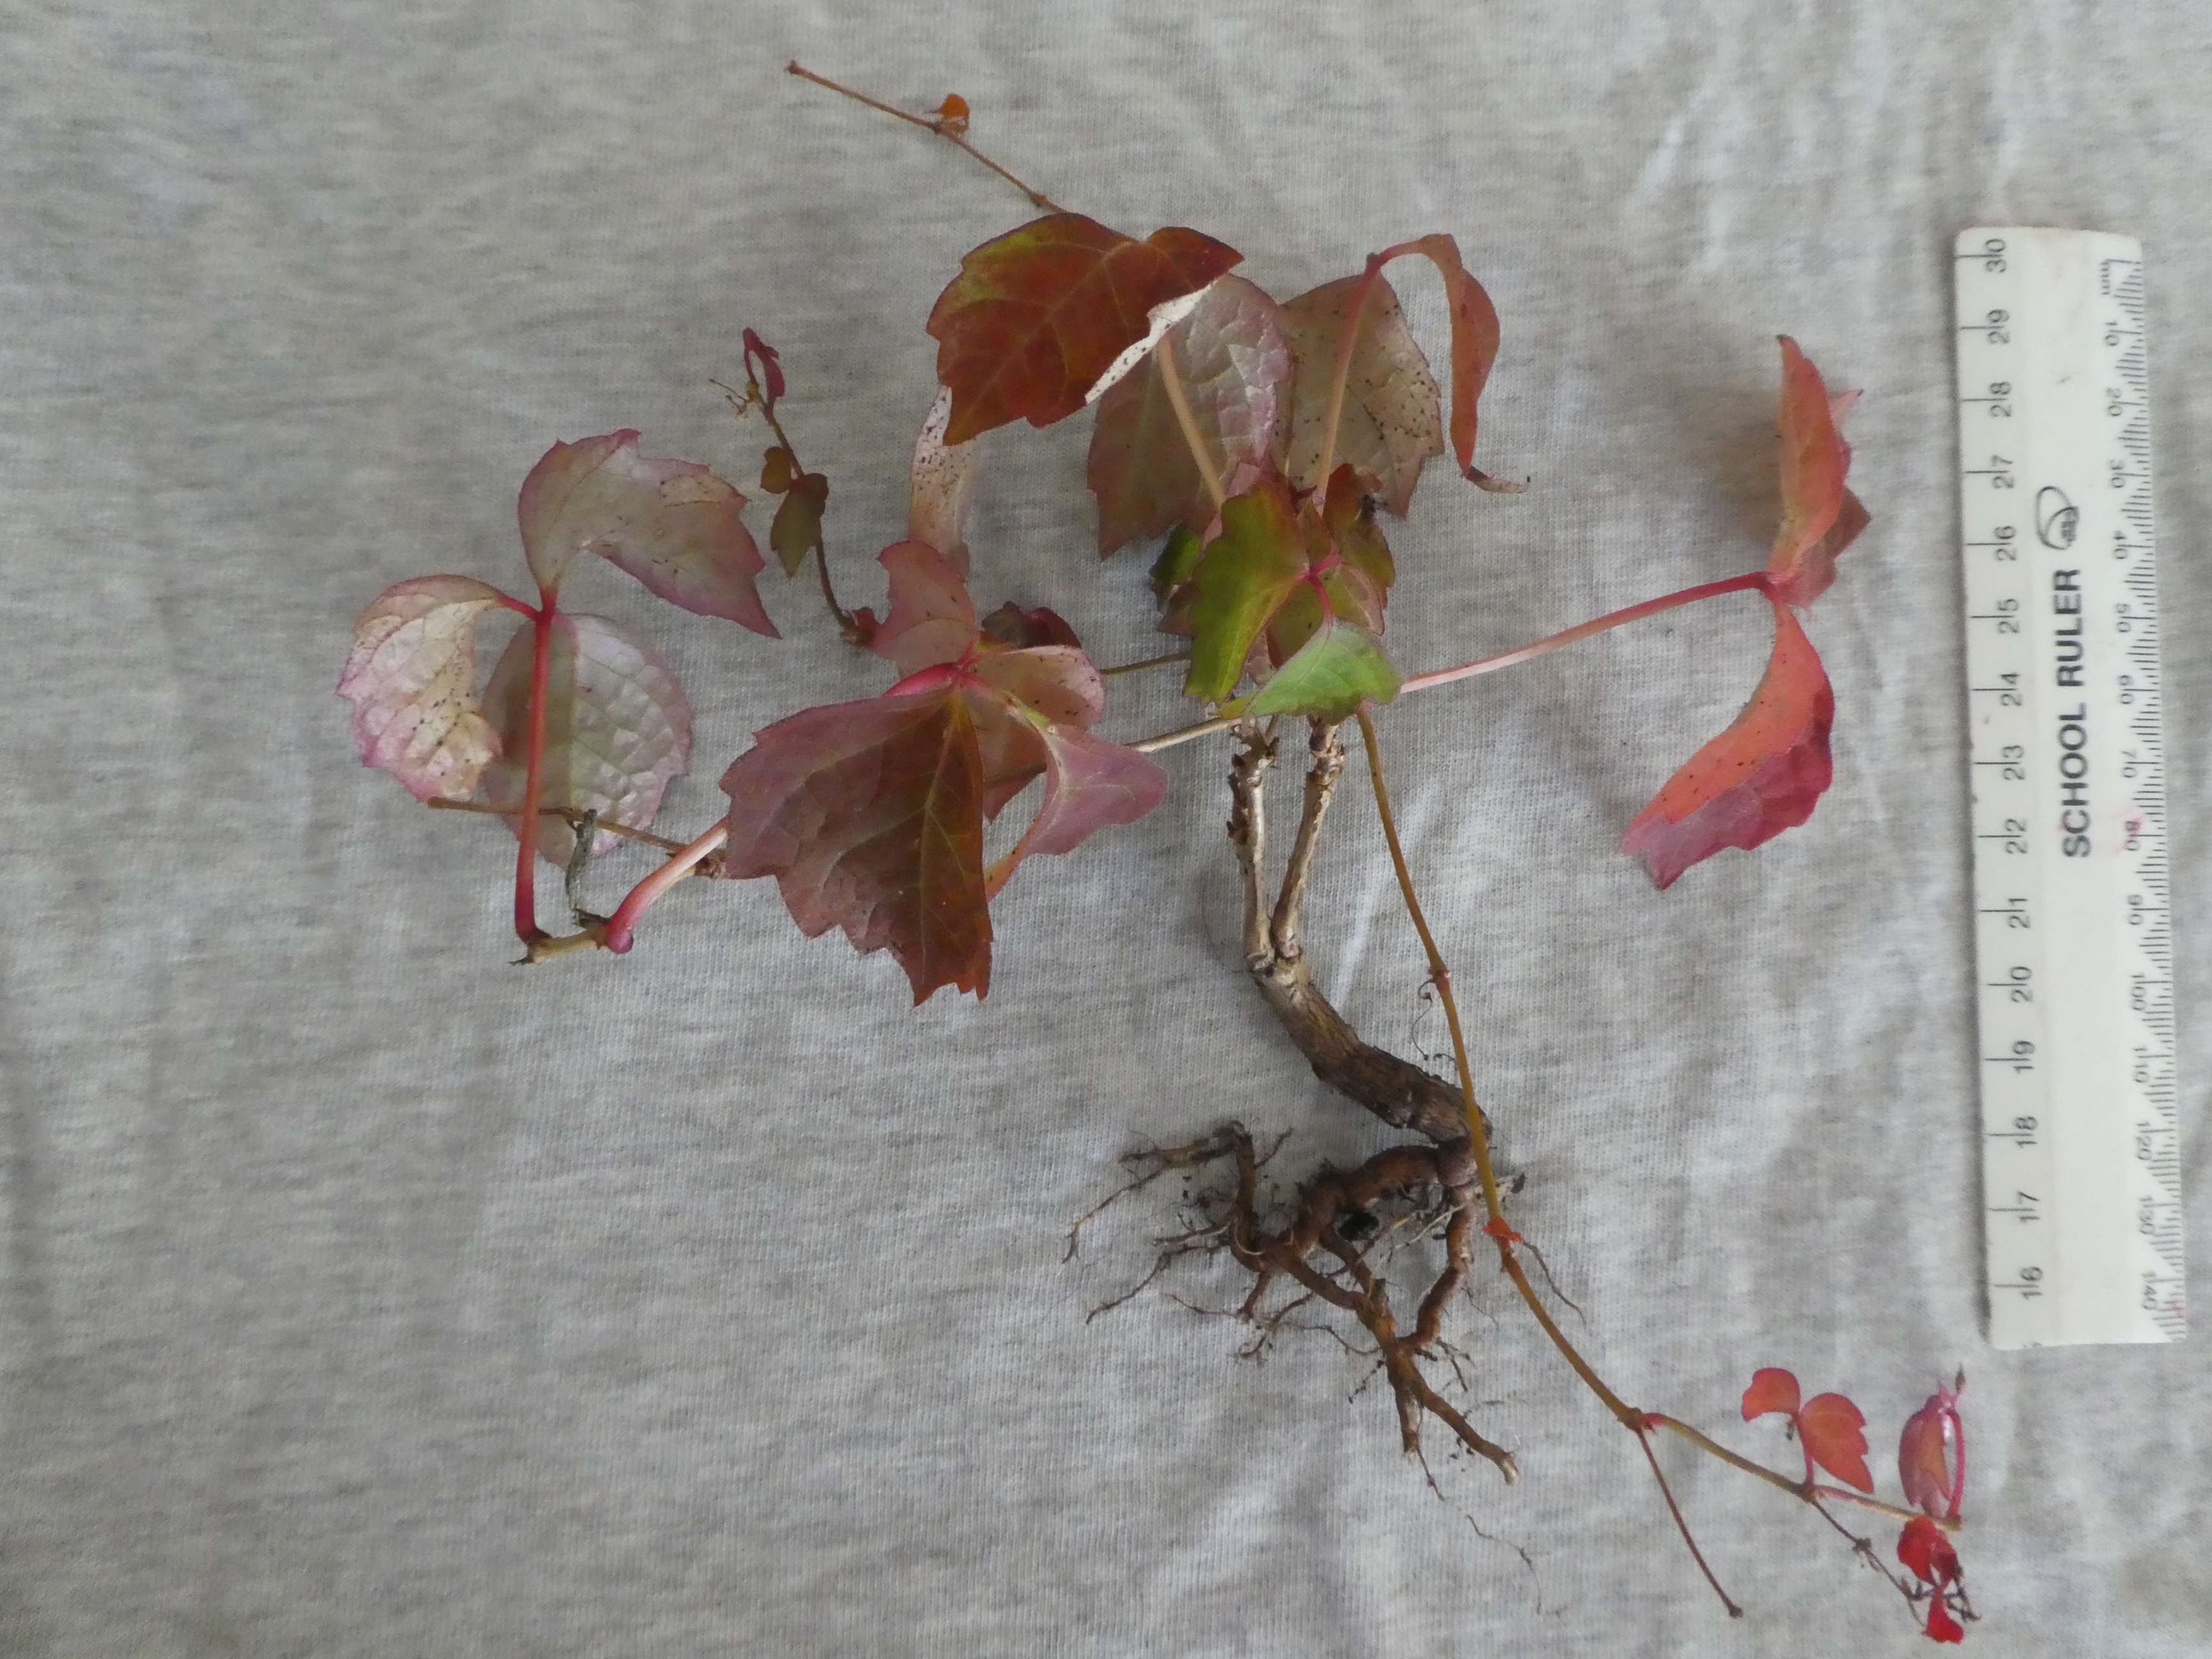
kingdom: Plantae
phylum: Tracheophyta
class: Magnoliopsida
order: Vitales
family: Vitaceae
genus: Parthenocissus
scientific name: Parthenocissus tricuspidata
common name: Boston ivy
